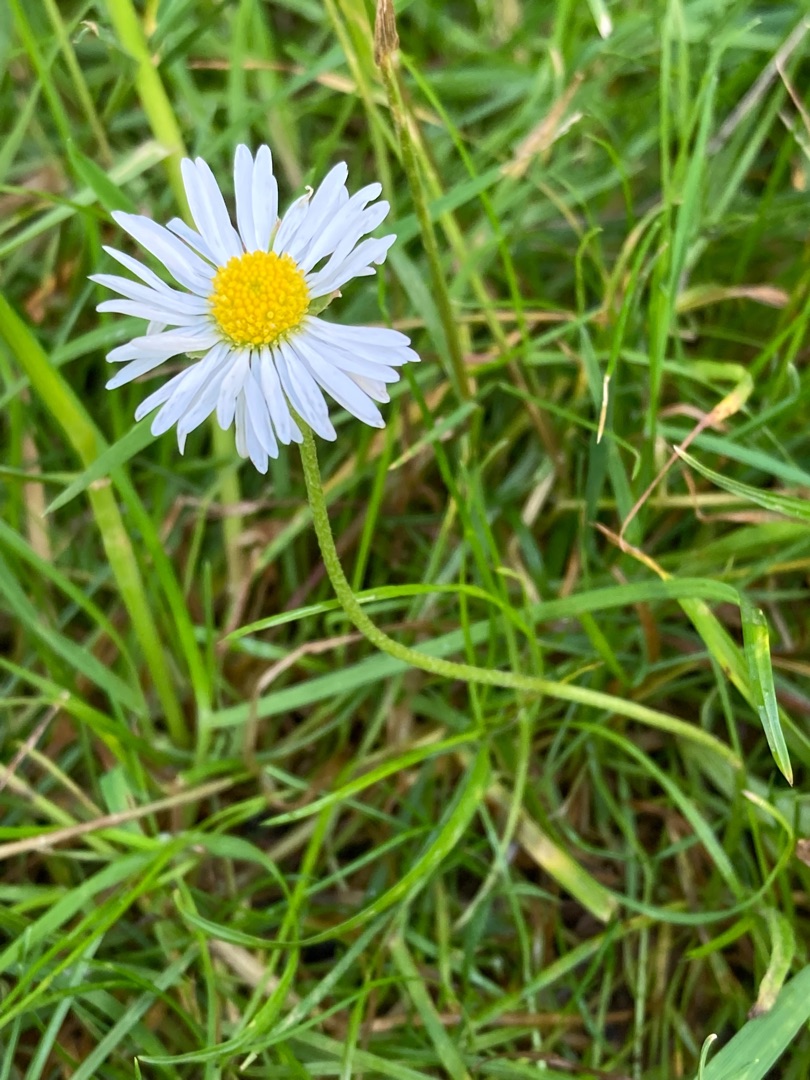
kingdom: Plantae
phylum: Tracheophyta
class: Magnoliopsida
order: Asterales
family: Asteraceae
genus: Bellis
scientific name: Bellis perennis
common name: Tusindfryd
